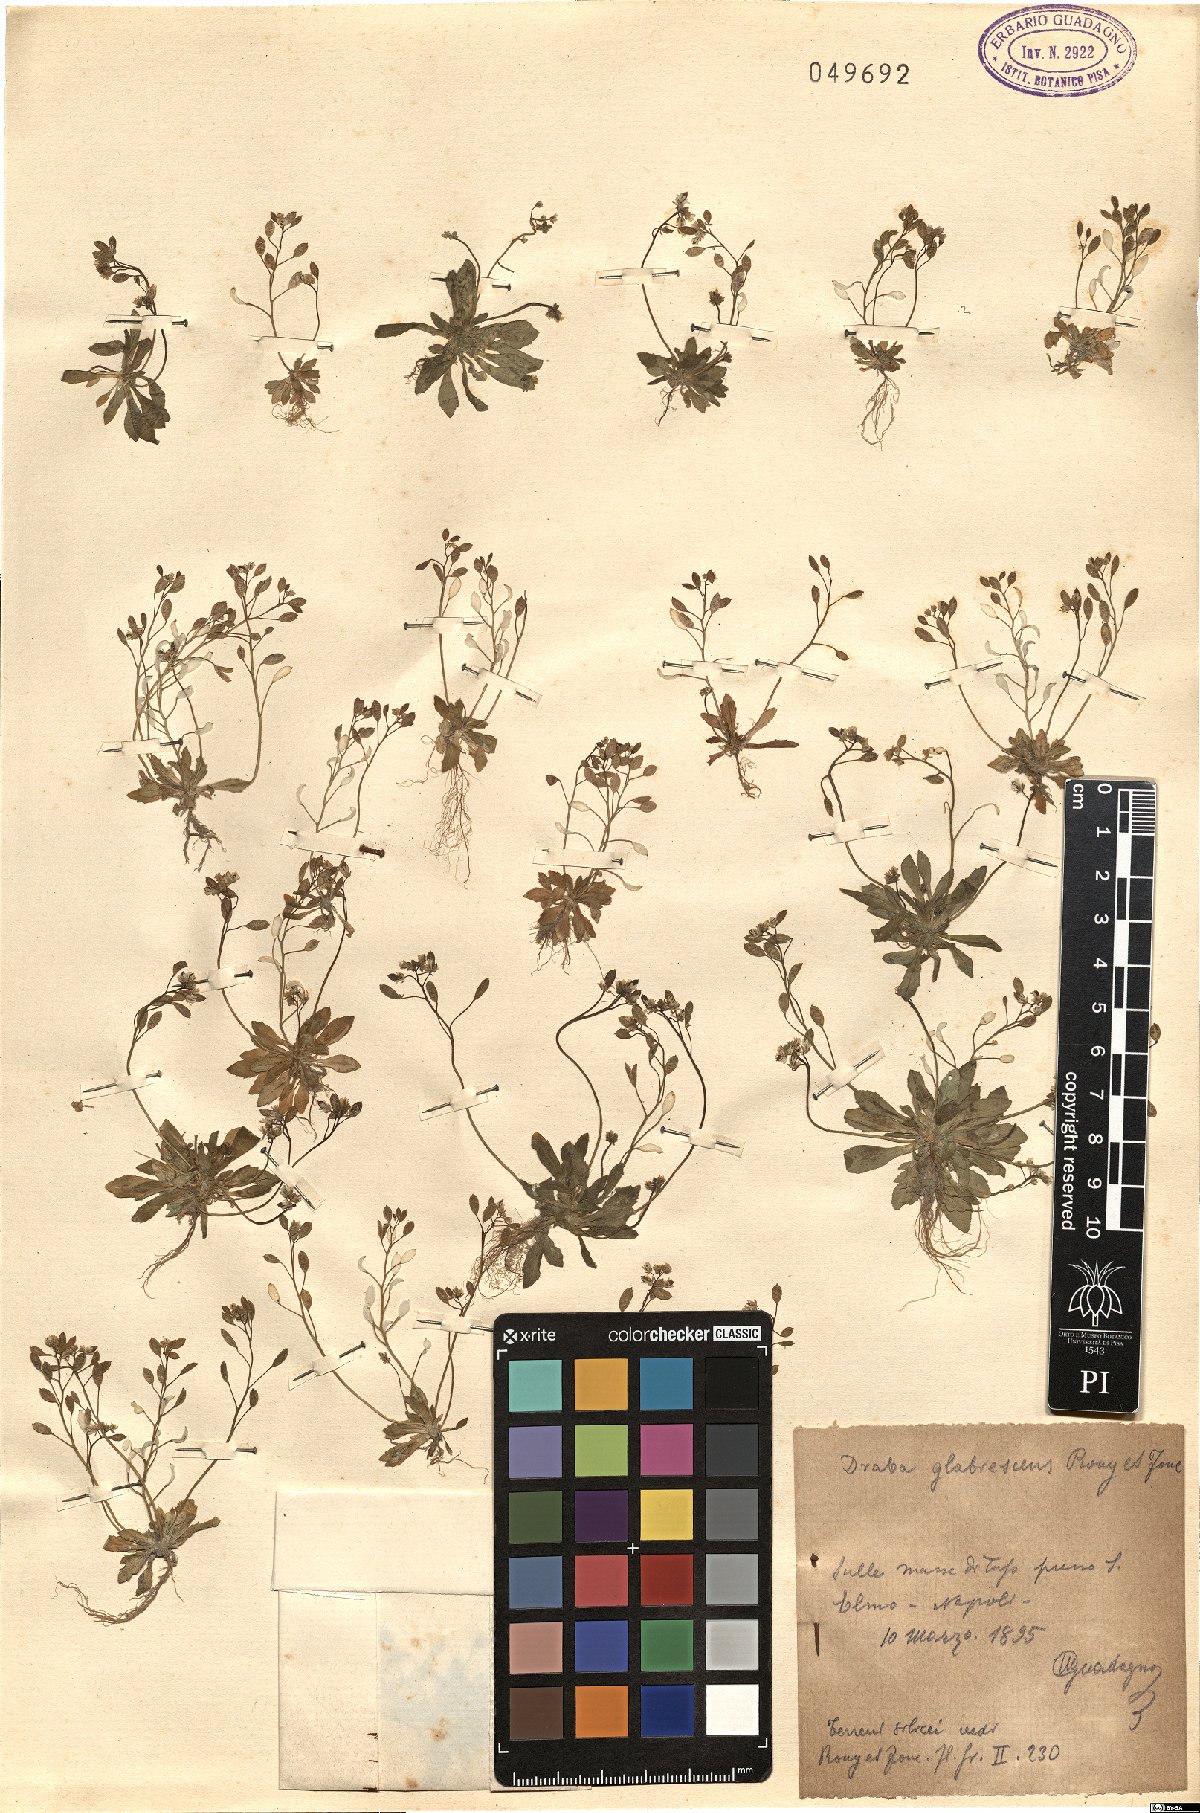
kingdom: Plantae
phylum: Tracheophyta
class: Magnoliopsida
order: Brassicales
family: Brassicaceae
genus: Draba
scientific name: Draba verna
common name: Spring draba
